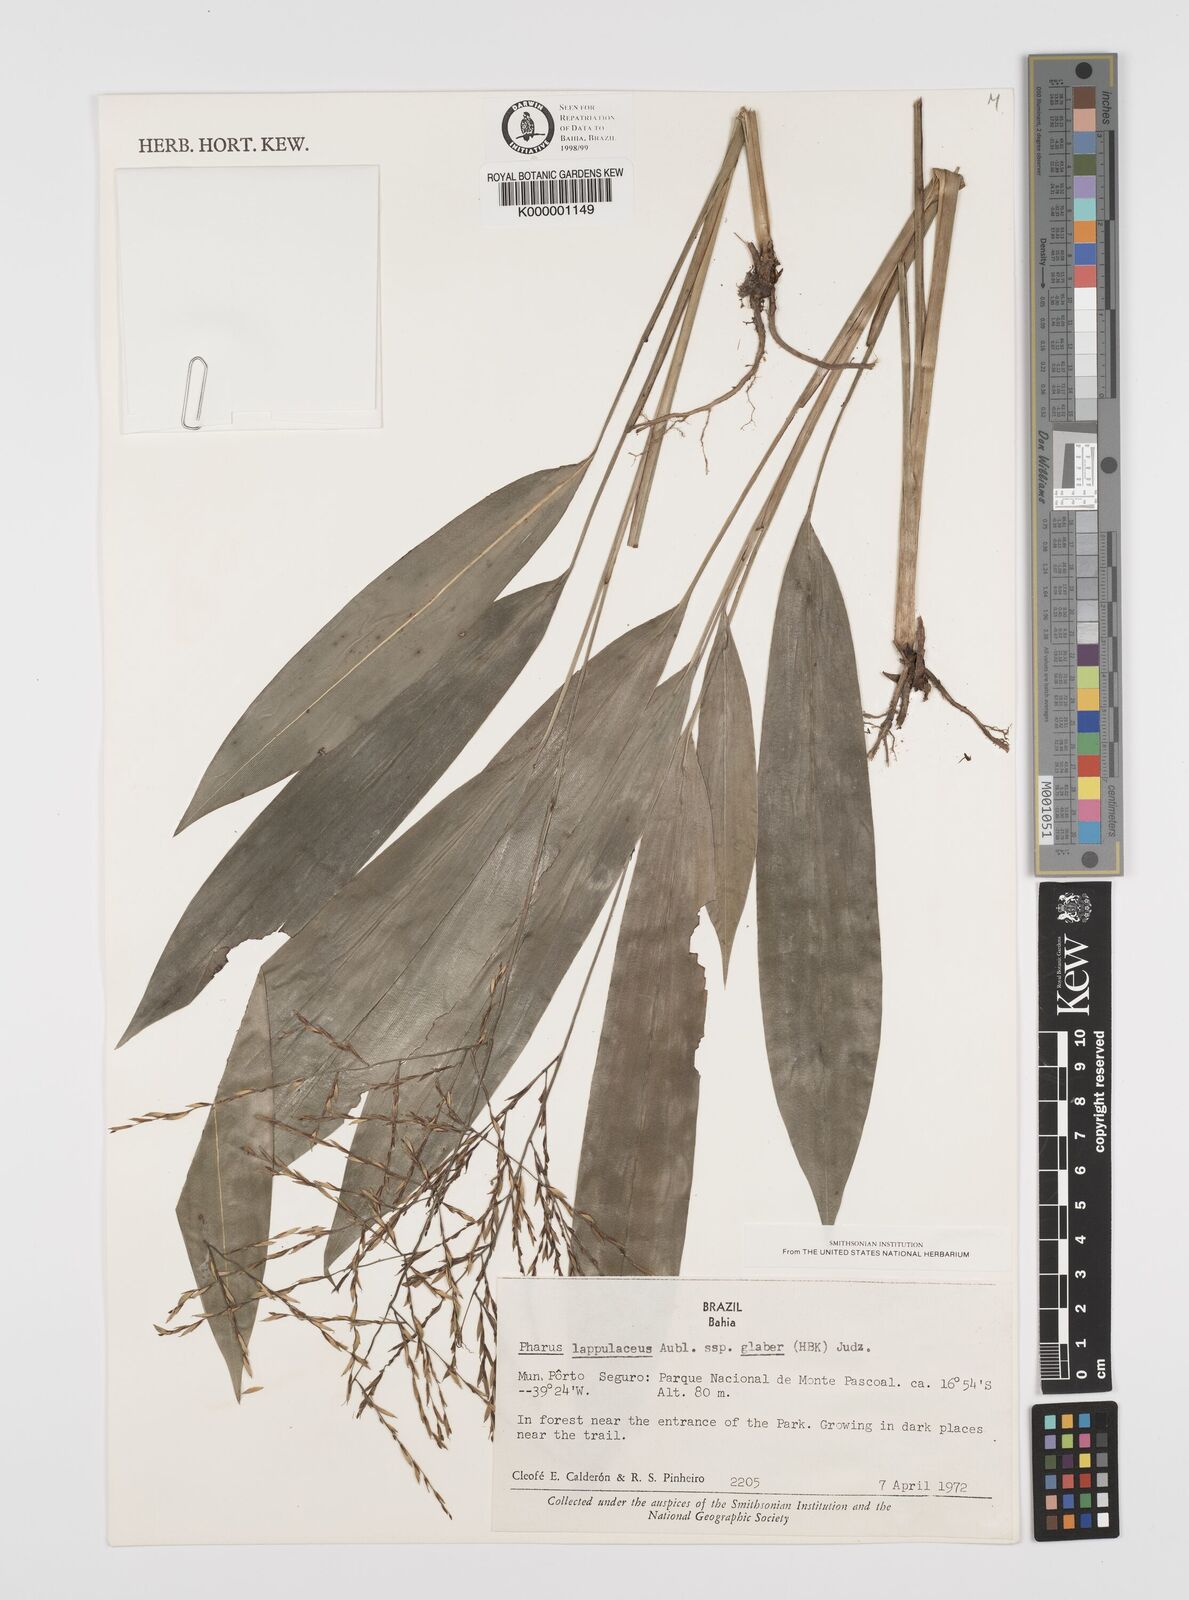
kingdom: Plantae
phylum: Tracheophyta
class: Liliopsida
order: Poales
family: Poaceae
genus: Pharus
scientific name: Pharus lappulaceus
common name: Creeping leafstalk grass
